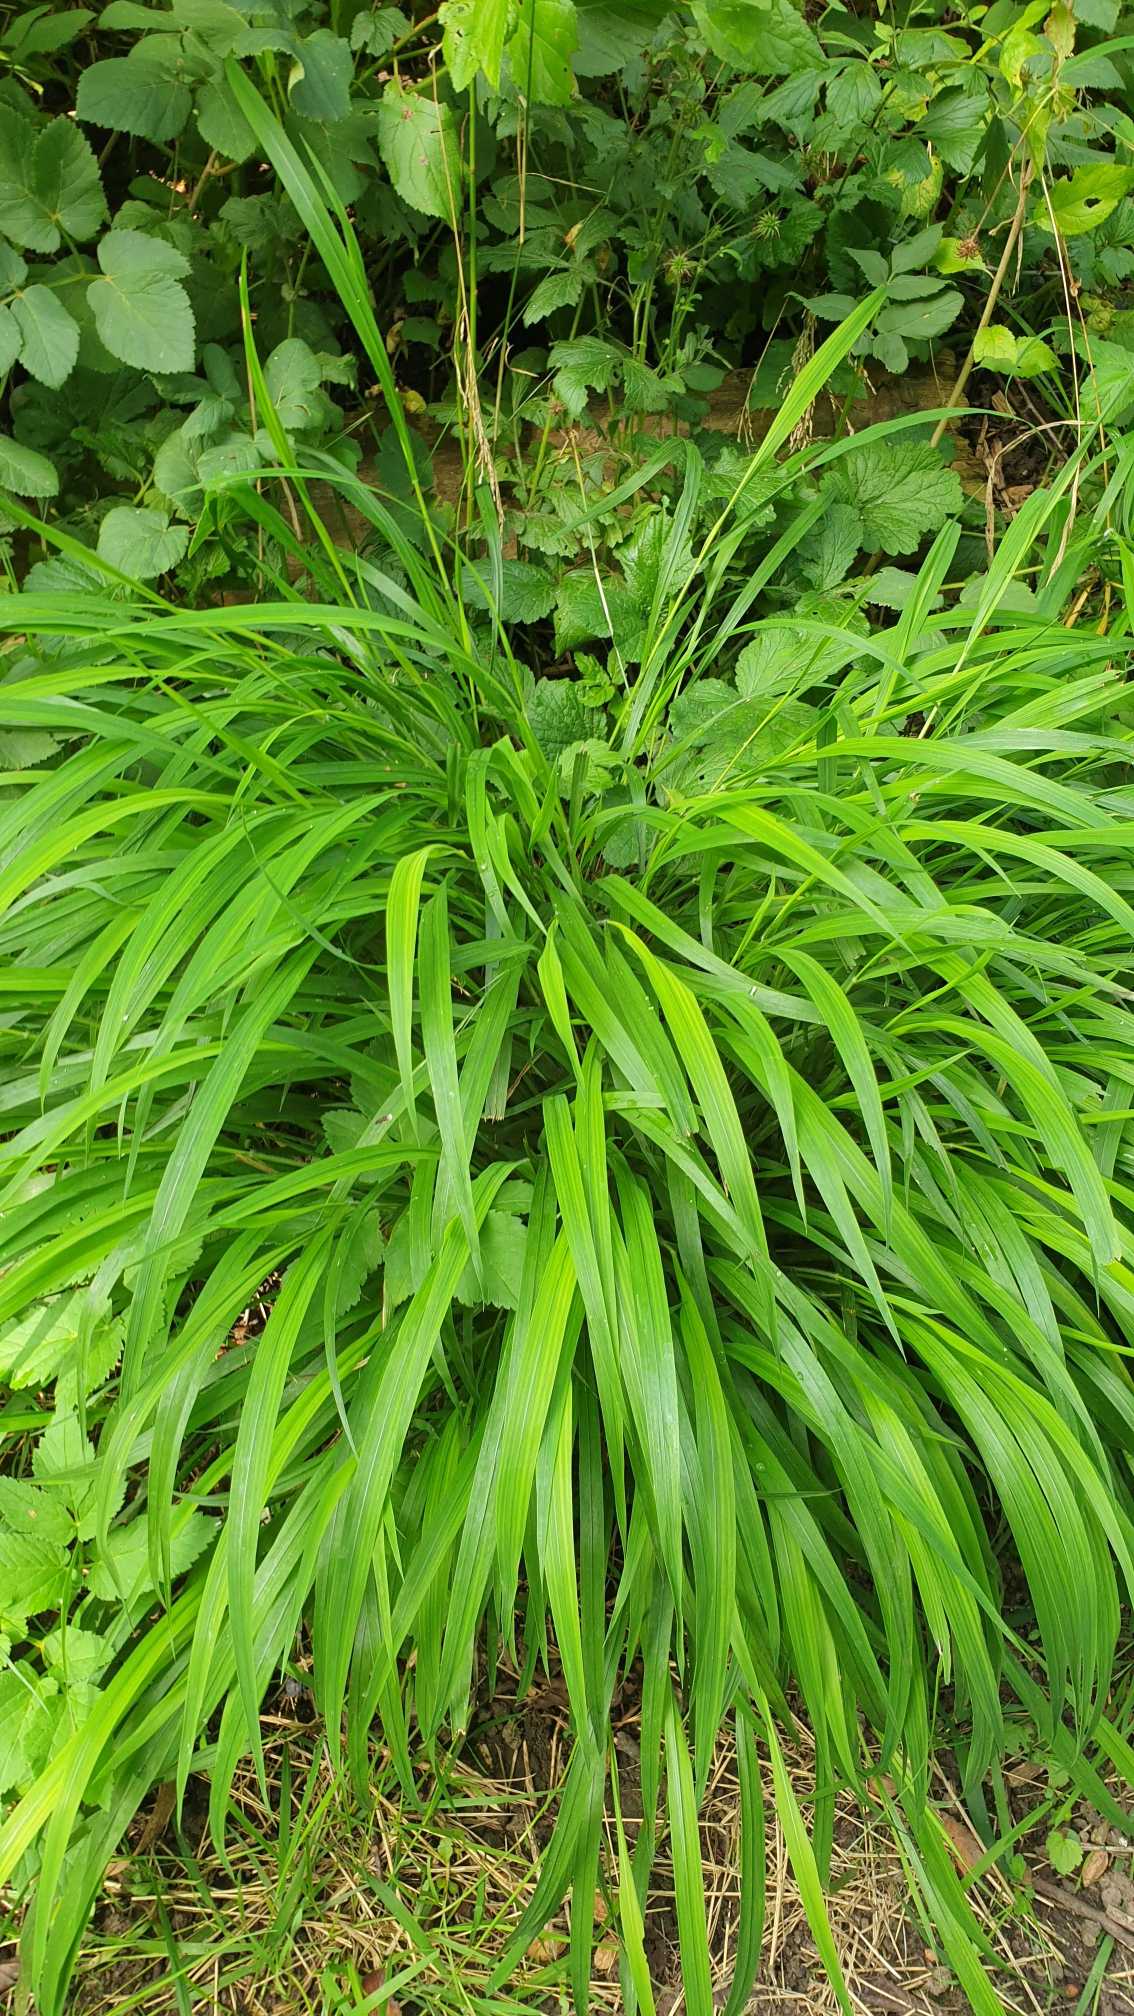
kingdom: Plantae
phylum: Tracheophyta
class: Liliopsida
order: Poales
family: Poaceae
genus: Brachypodium
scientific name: Brachypodium sylvaticum
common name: Skov-stilkaks
